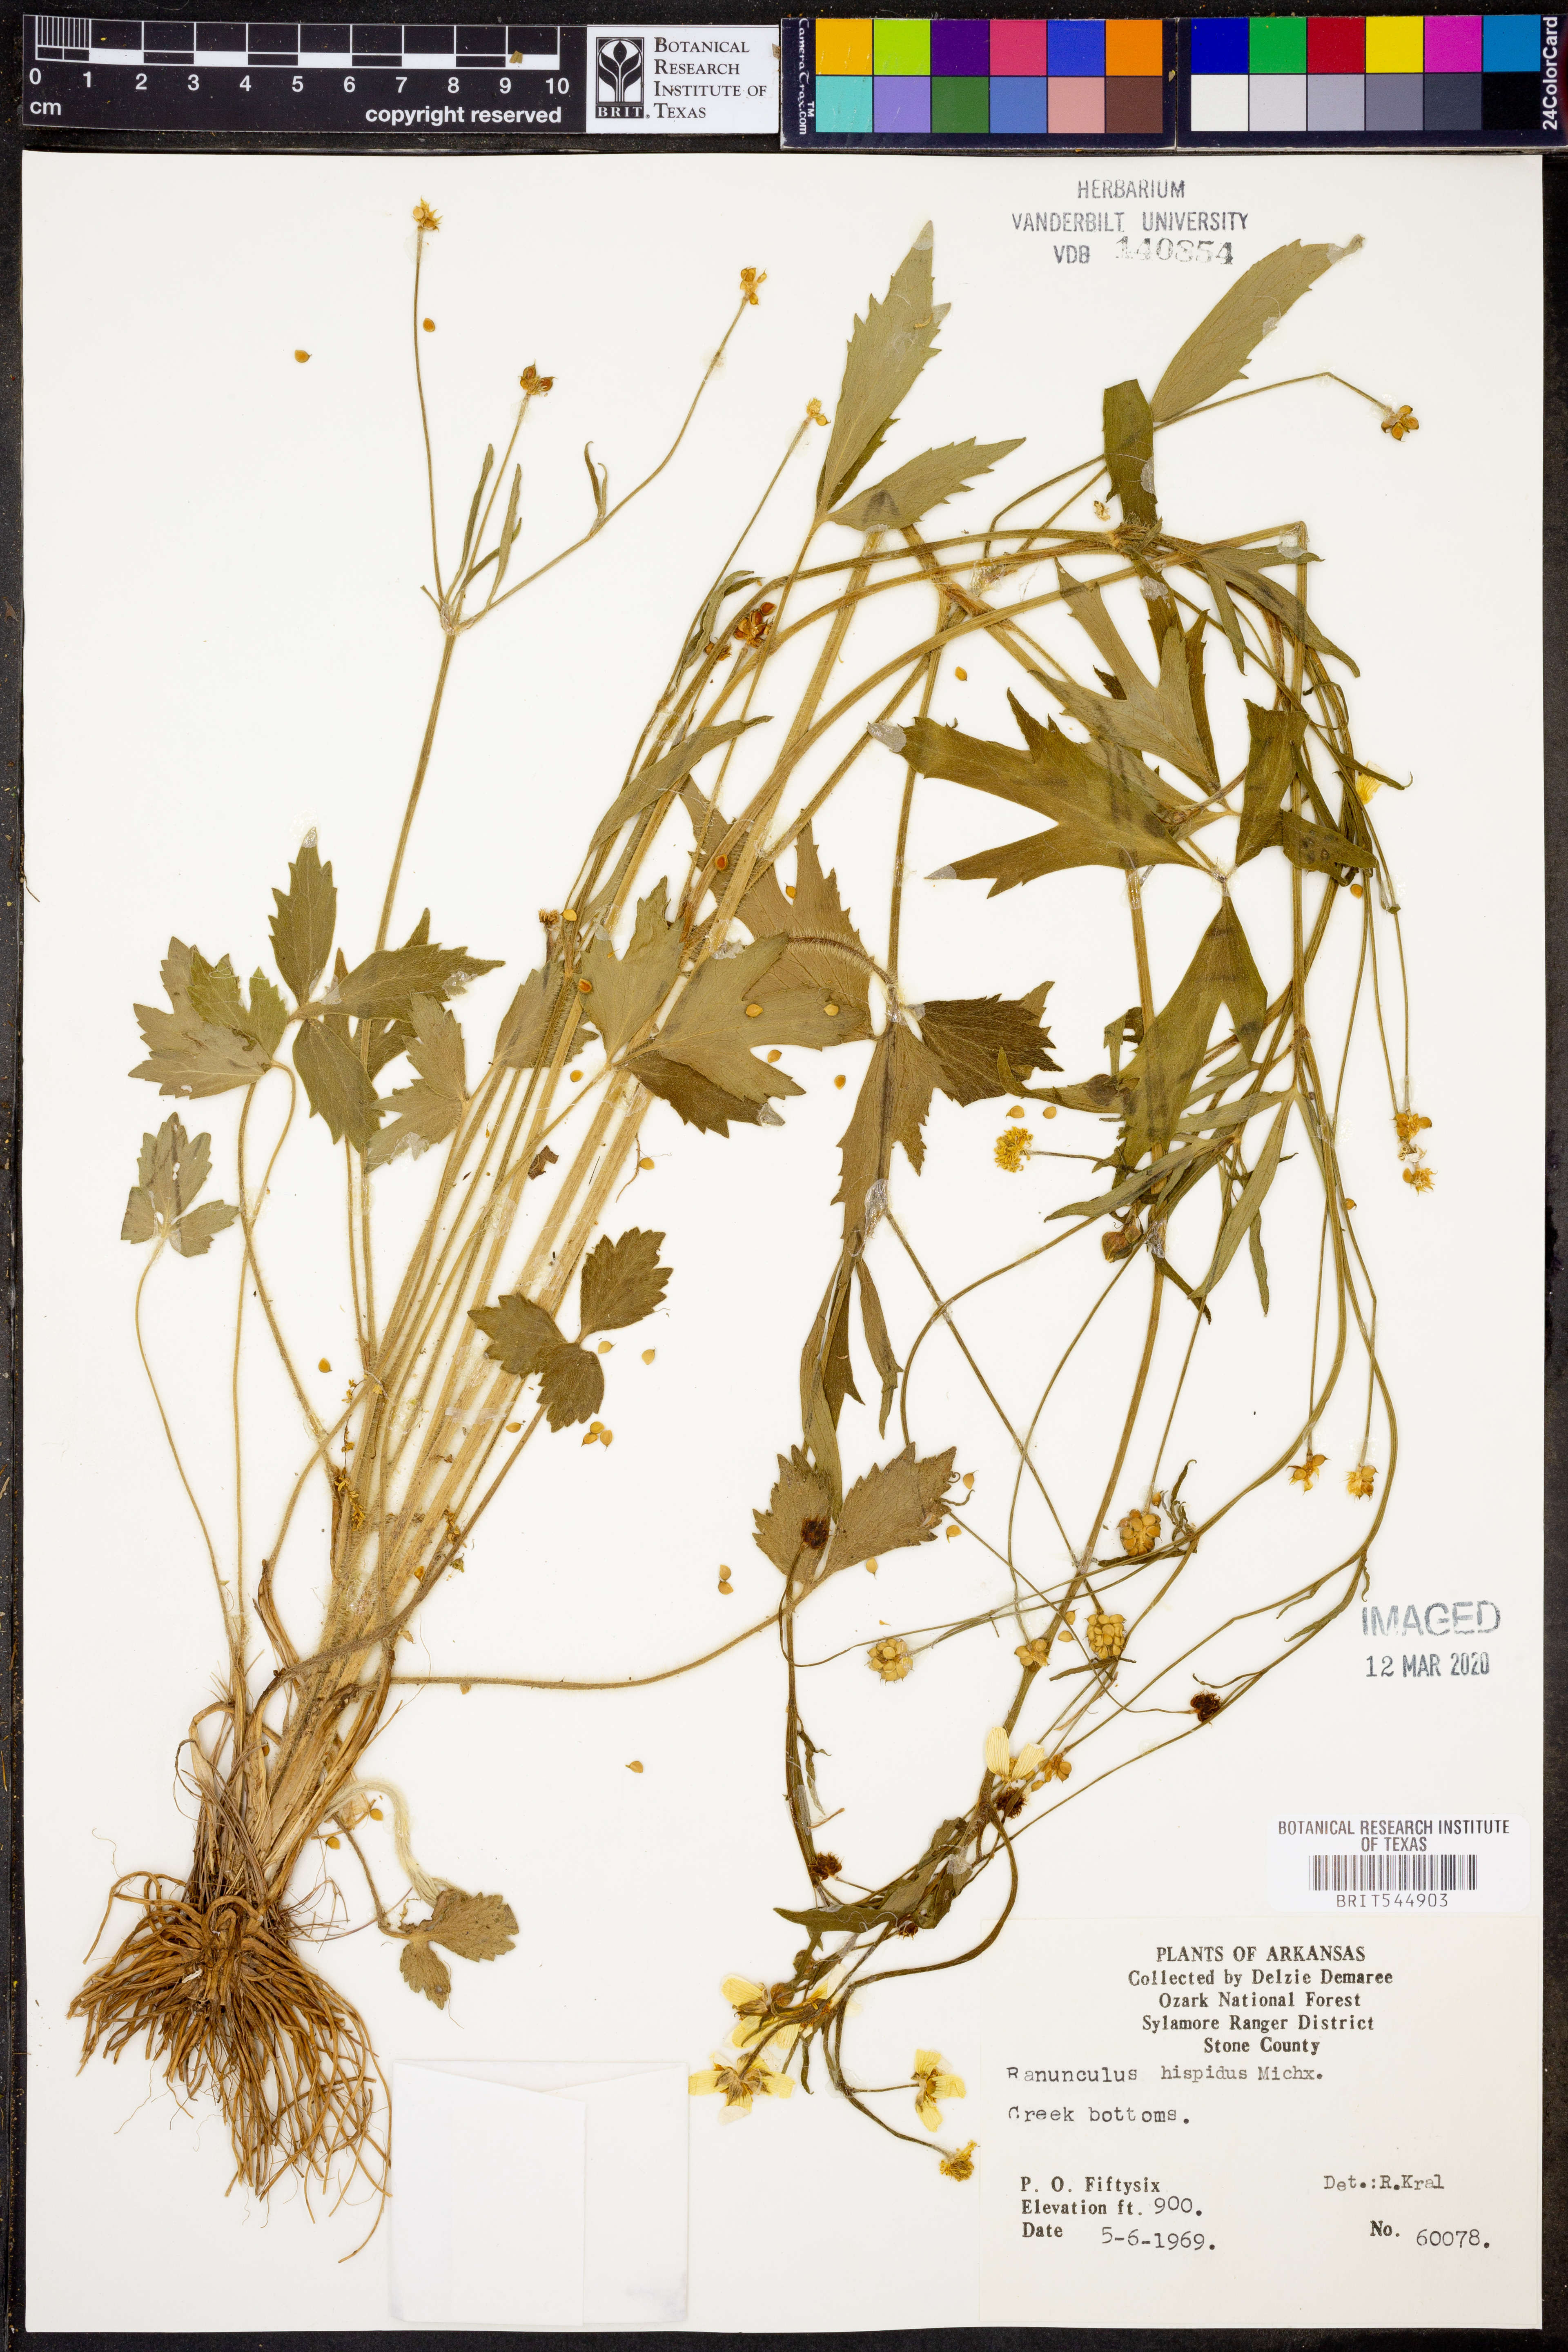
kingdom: Plantae
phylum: Tracheophyta
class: Magnoliopsida
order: Ranunculales
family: Ranunculaceae
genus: Ranunculus
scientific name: Ranunculus hispidus
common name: Bristly buttercup
